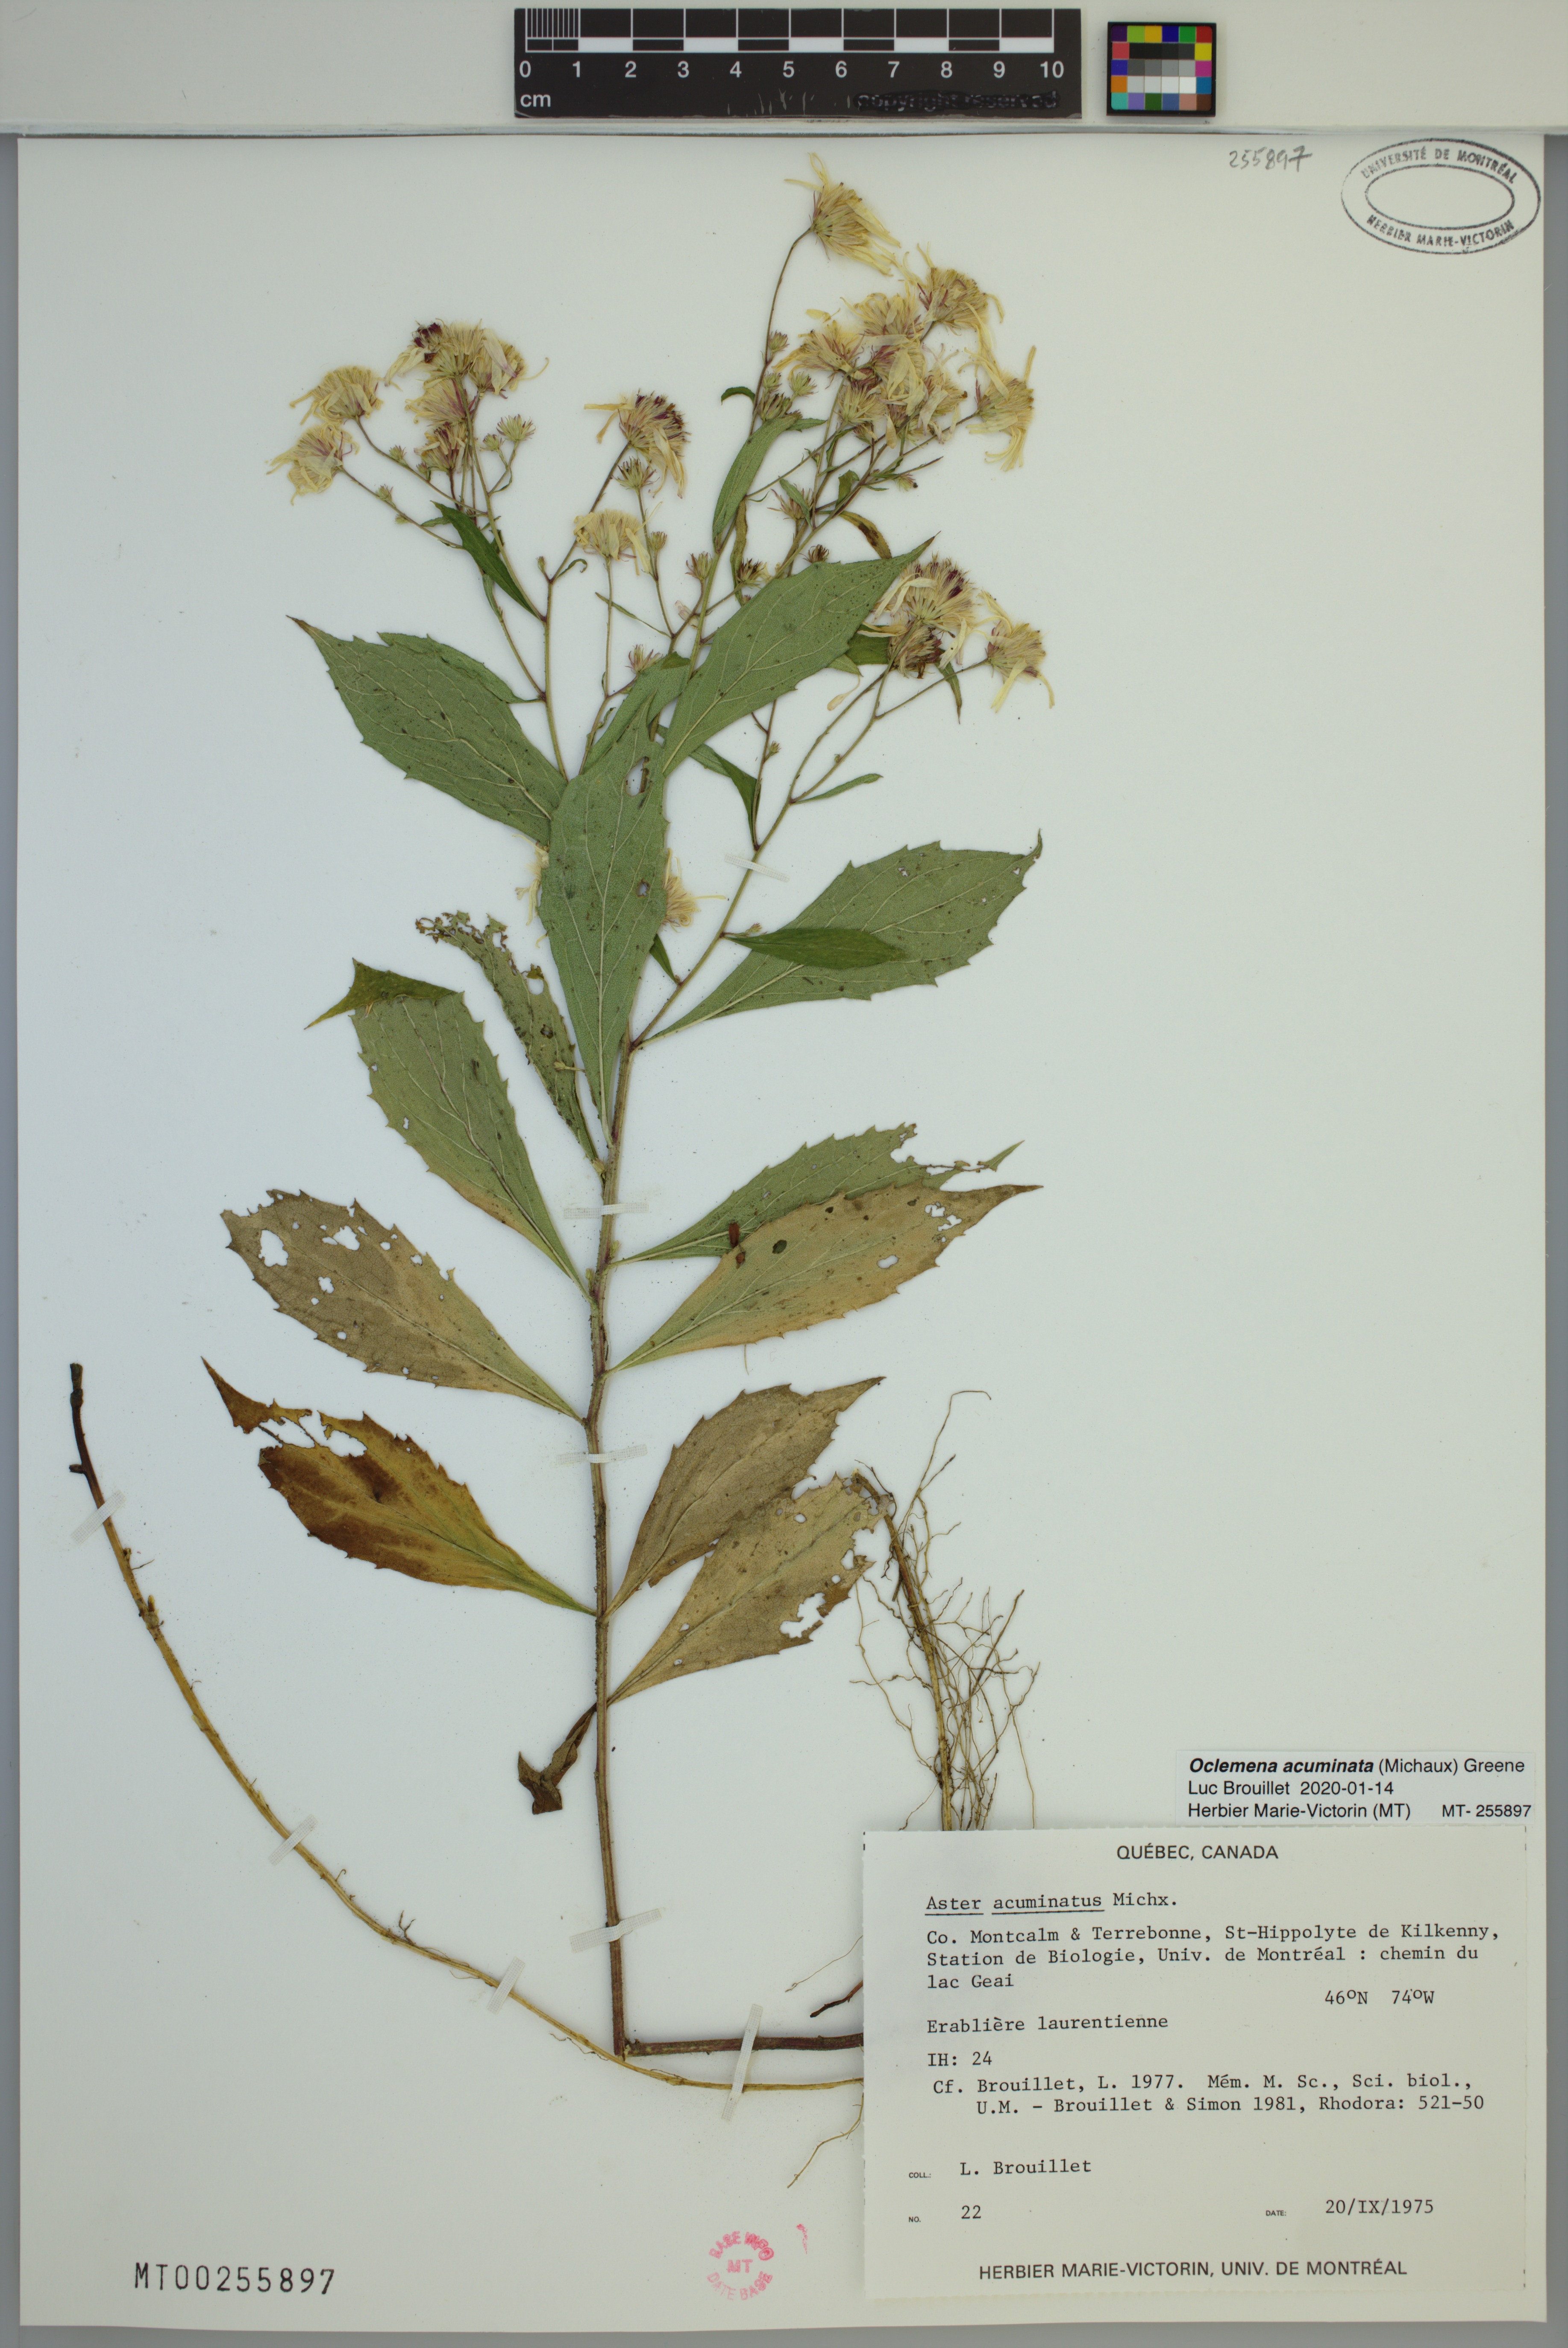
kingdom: Plantae
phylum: Tracheophyta
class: Magnoliopsida
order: Asterales
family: Asteraceae
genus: Oclemena
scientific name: Oclemena acuminata
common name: Mountain aster
